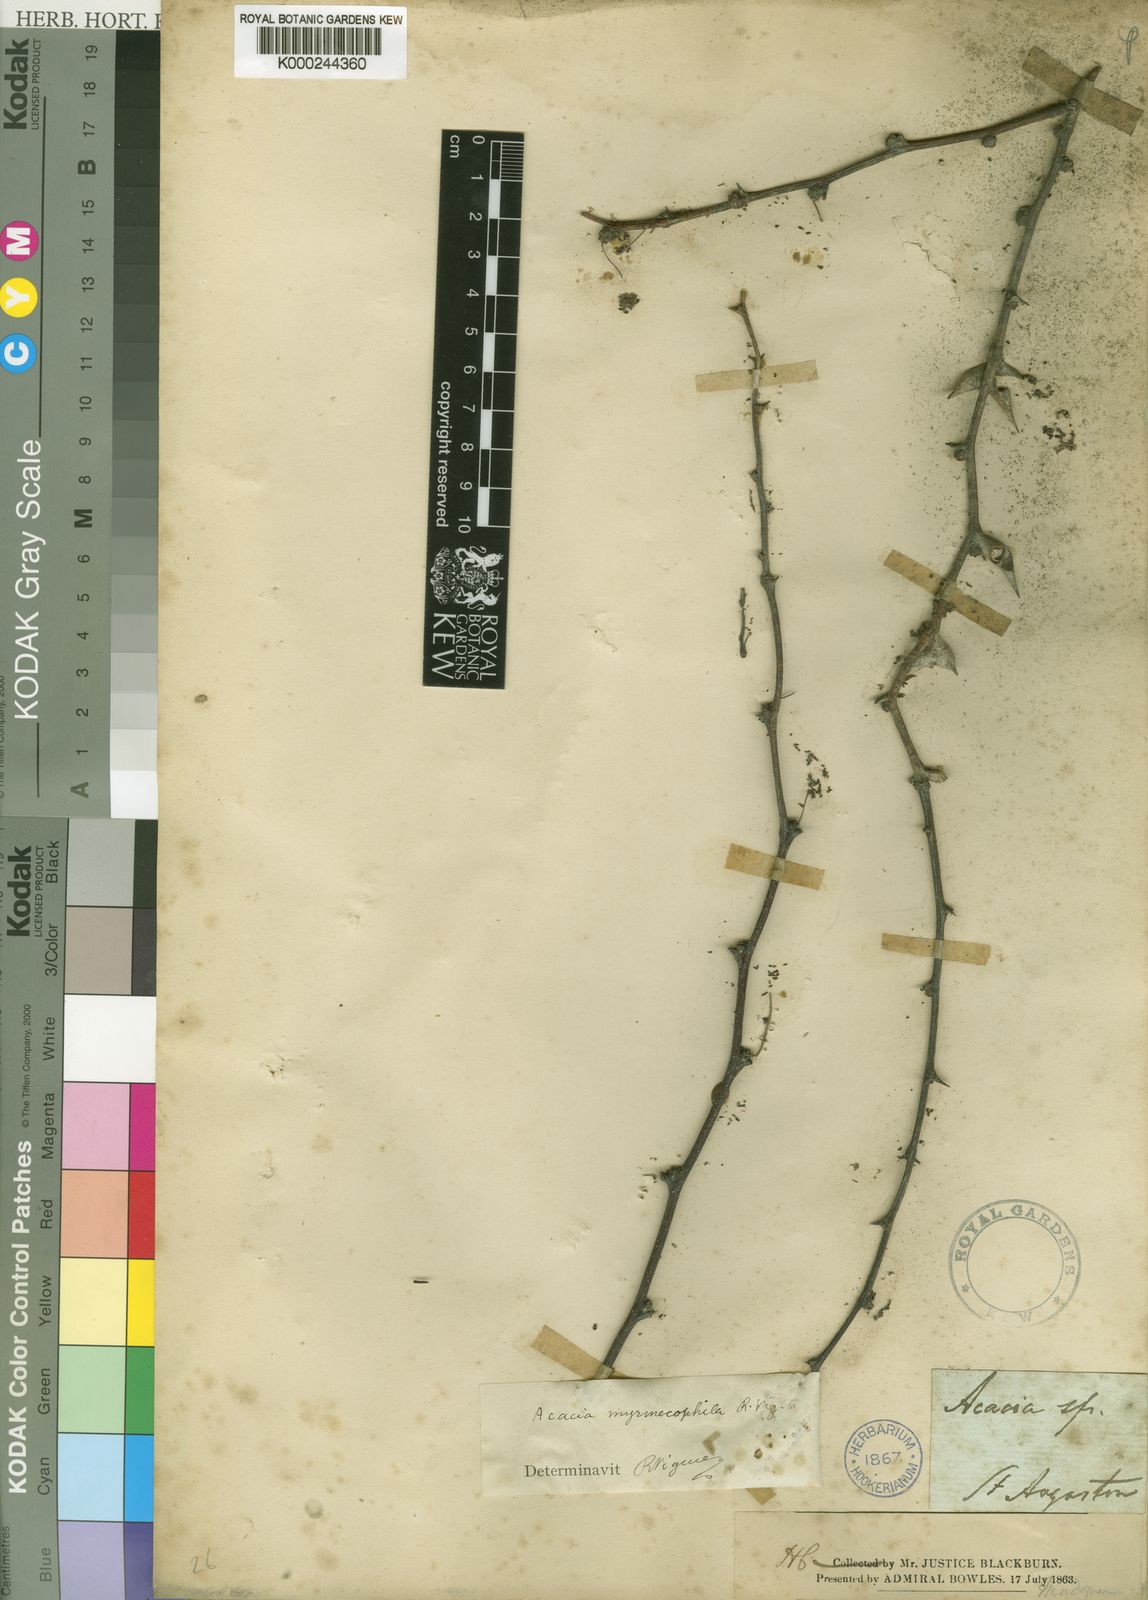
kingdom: Plantae
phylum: Tracheophyta
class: Magnoliopsida
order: Fabales
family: Fabaceae
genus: Vachellia
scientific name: Vachellia viguieri
